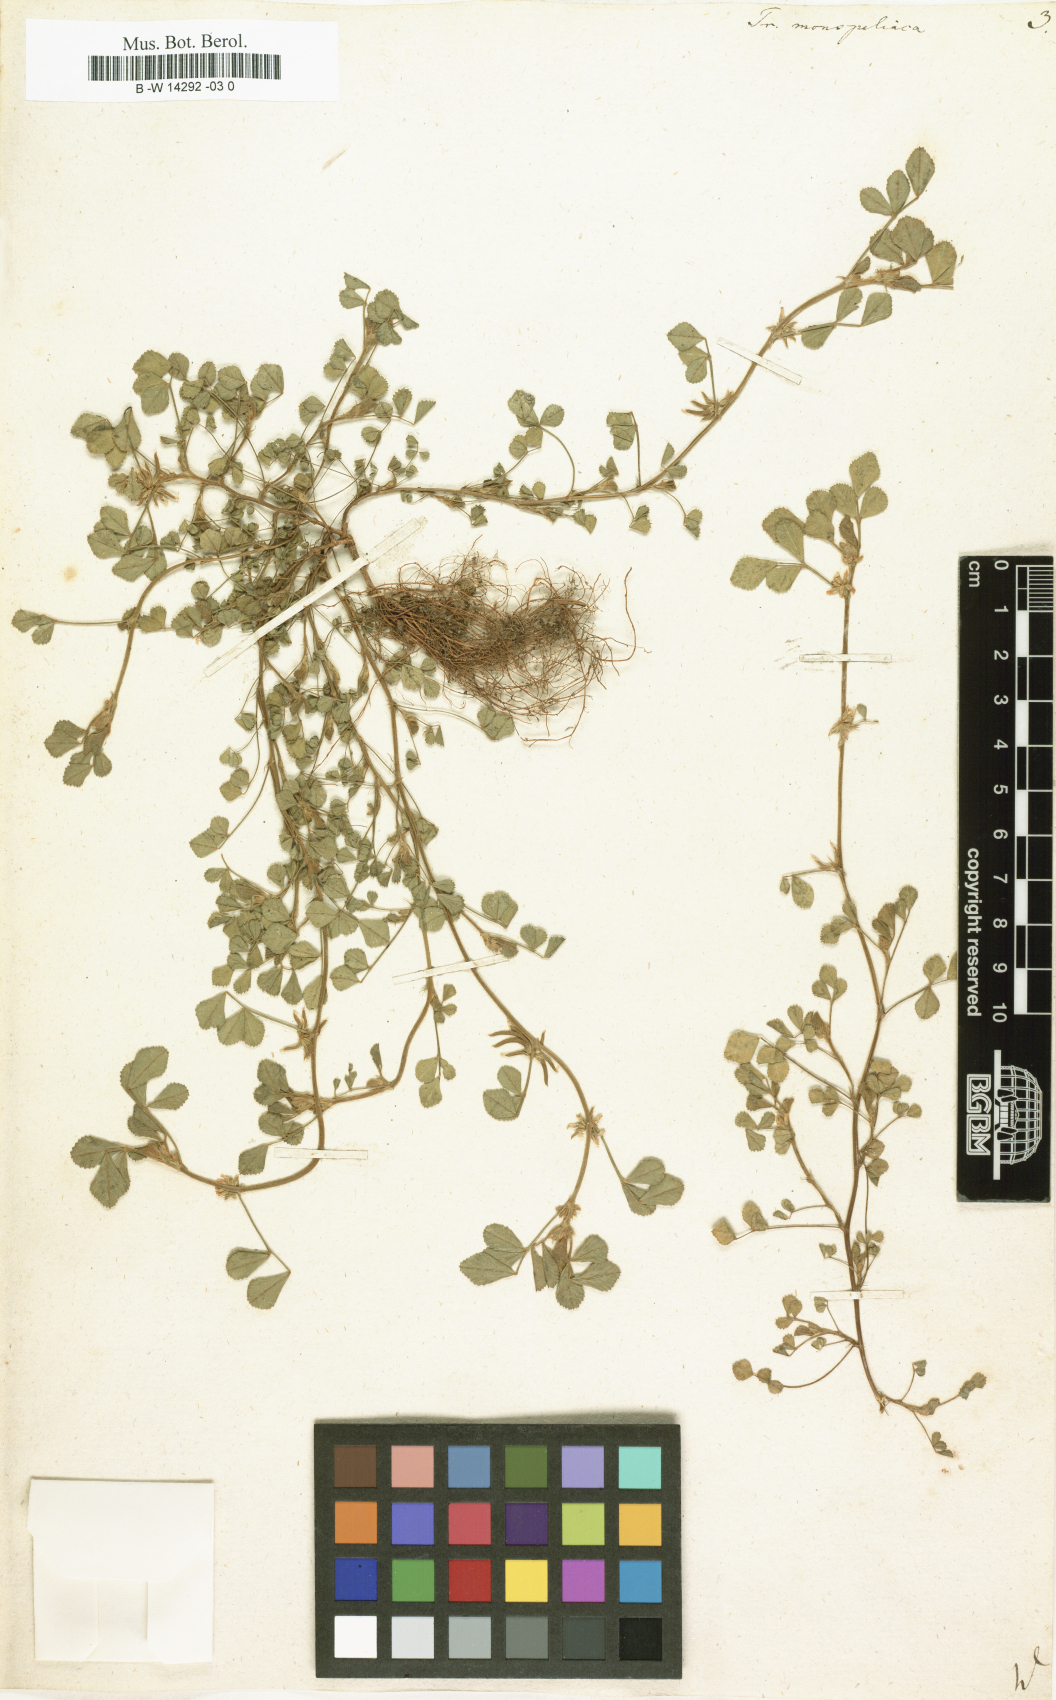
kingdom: Plantae
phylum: Tracheophyta
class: Magnoliopsida
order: Fabales
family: Fabaceae
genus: Medicago
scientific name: Medicago monspeliaca
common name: Hairy medick
